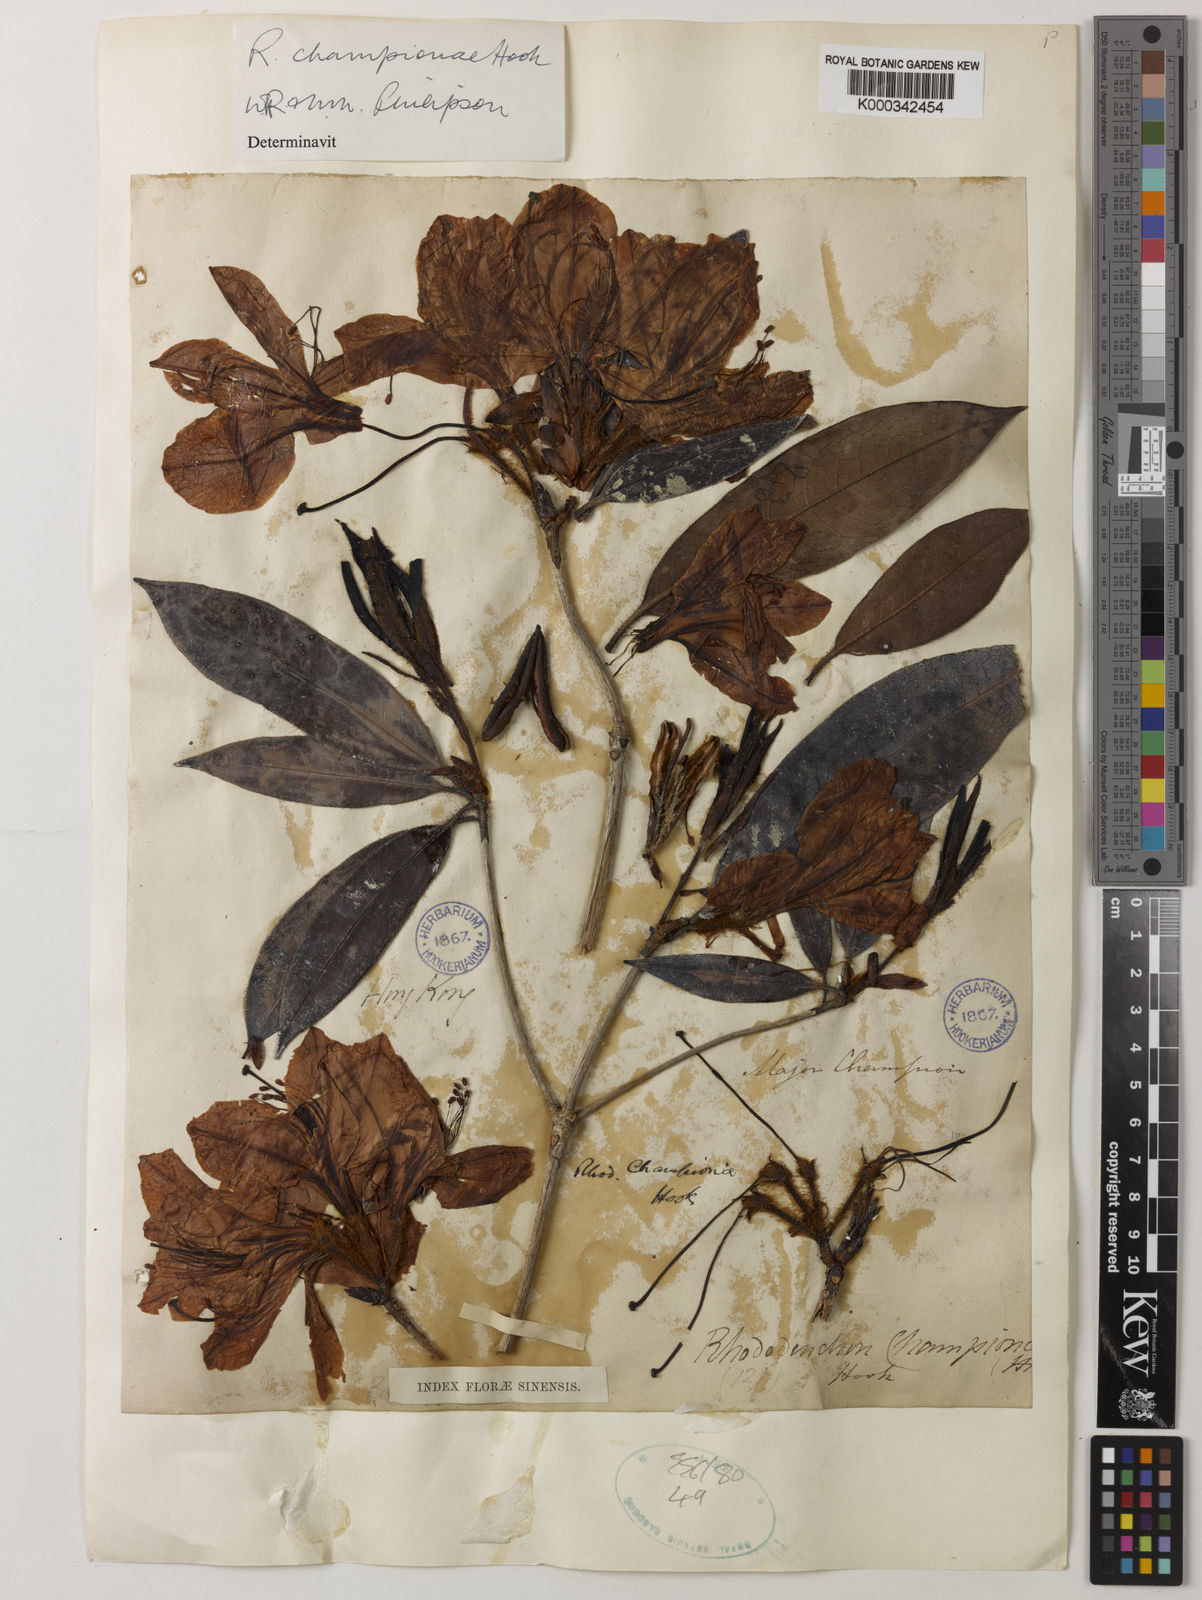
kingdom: Plantae
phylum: Tracheophyta
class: Magnoliopsida
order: Ericales
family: Ericaceae
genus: Rhododendron
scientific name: Rhododendron championiae
